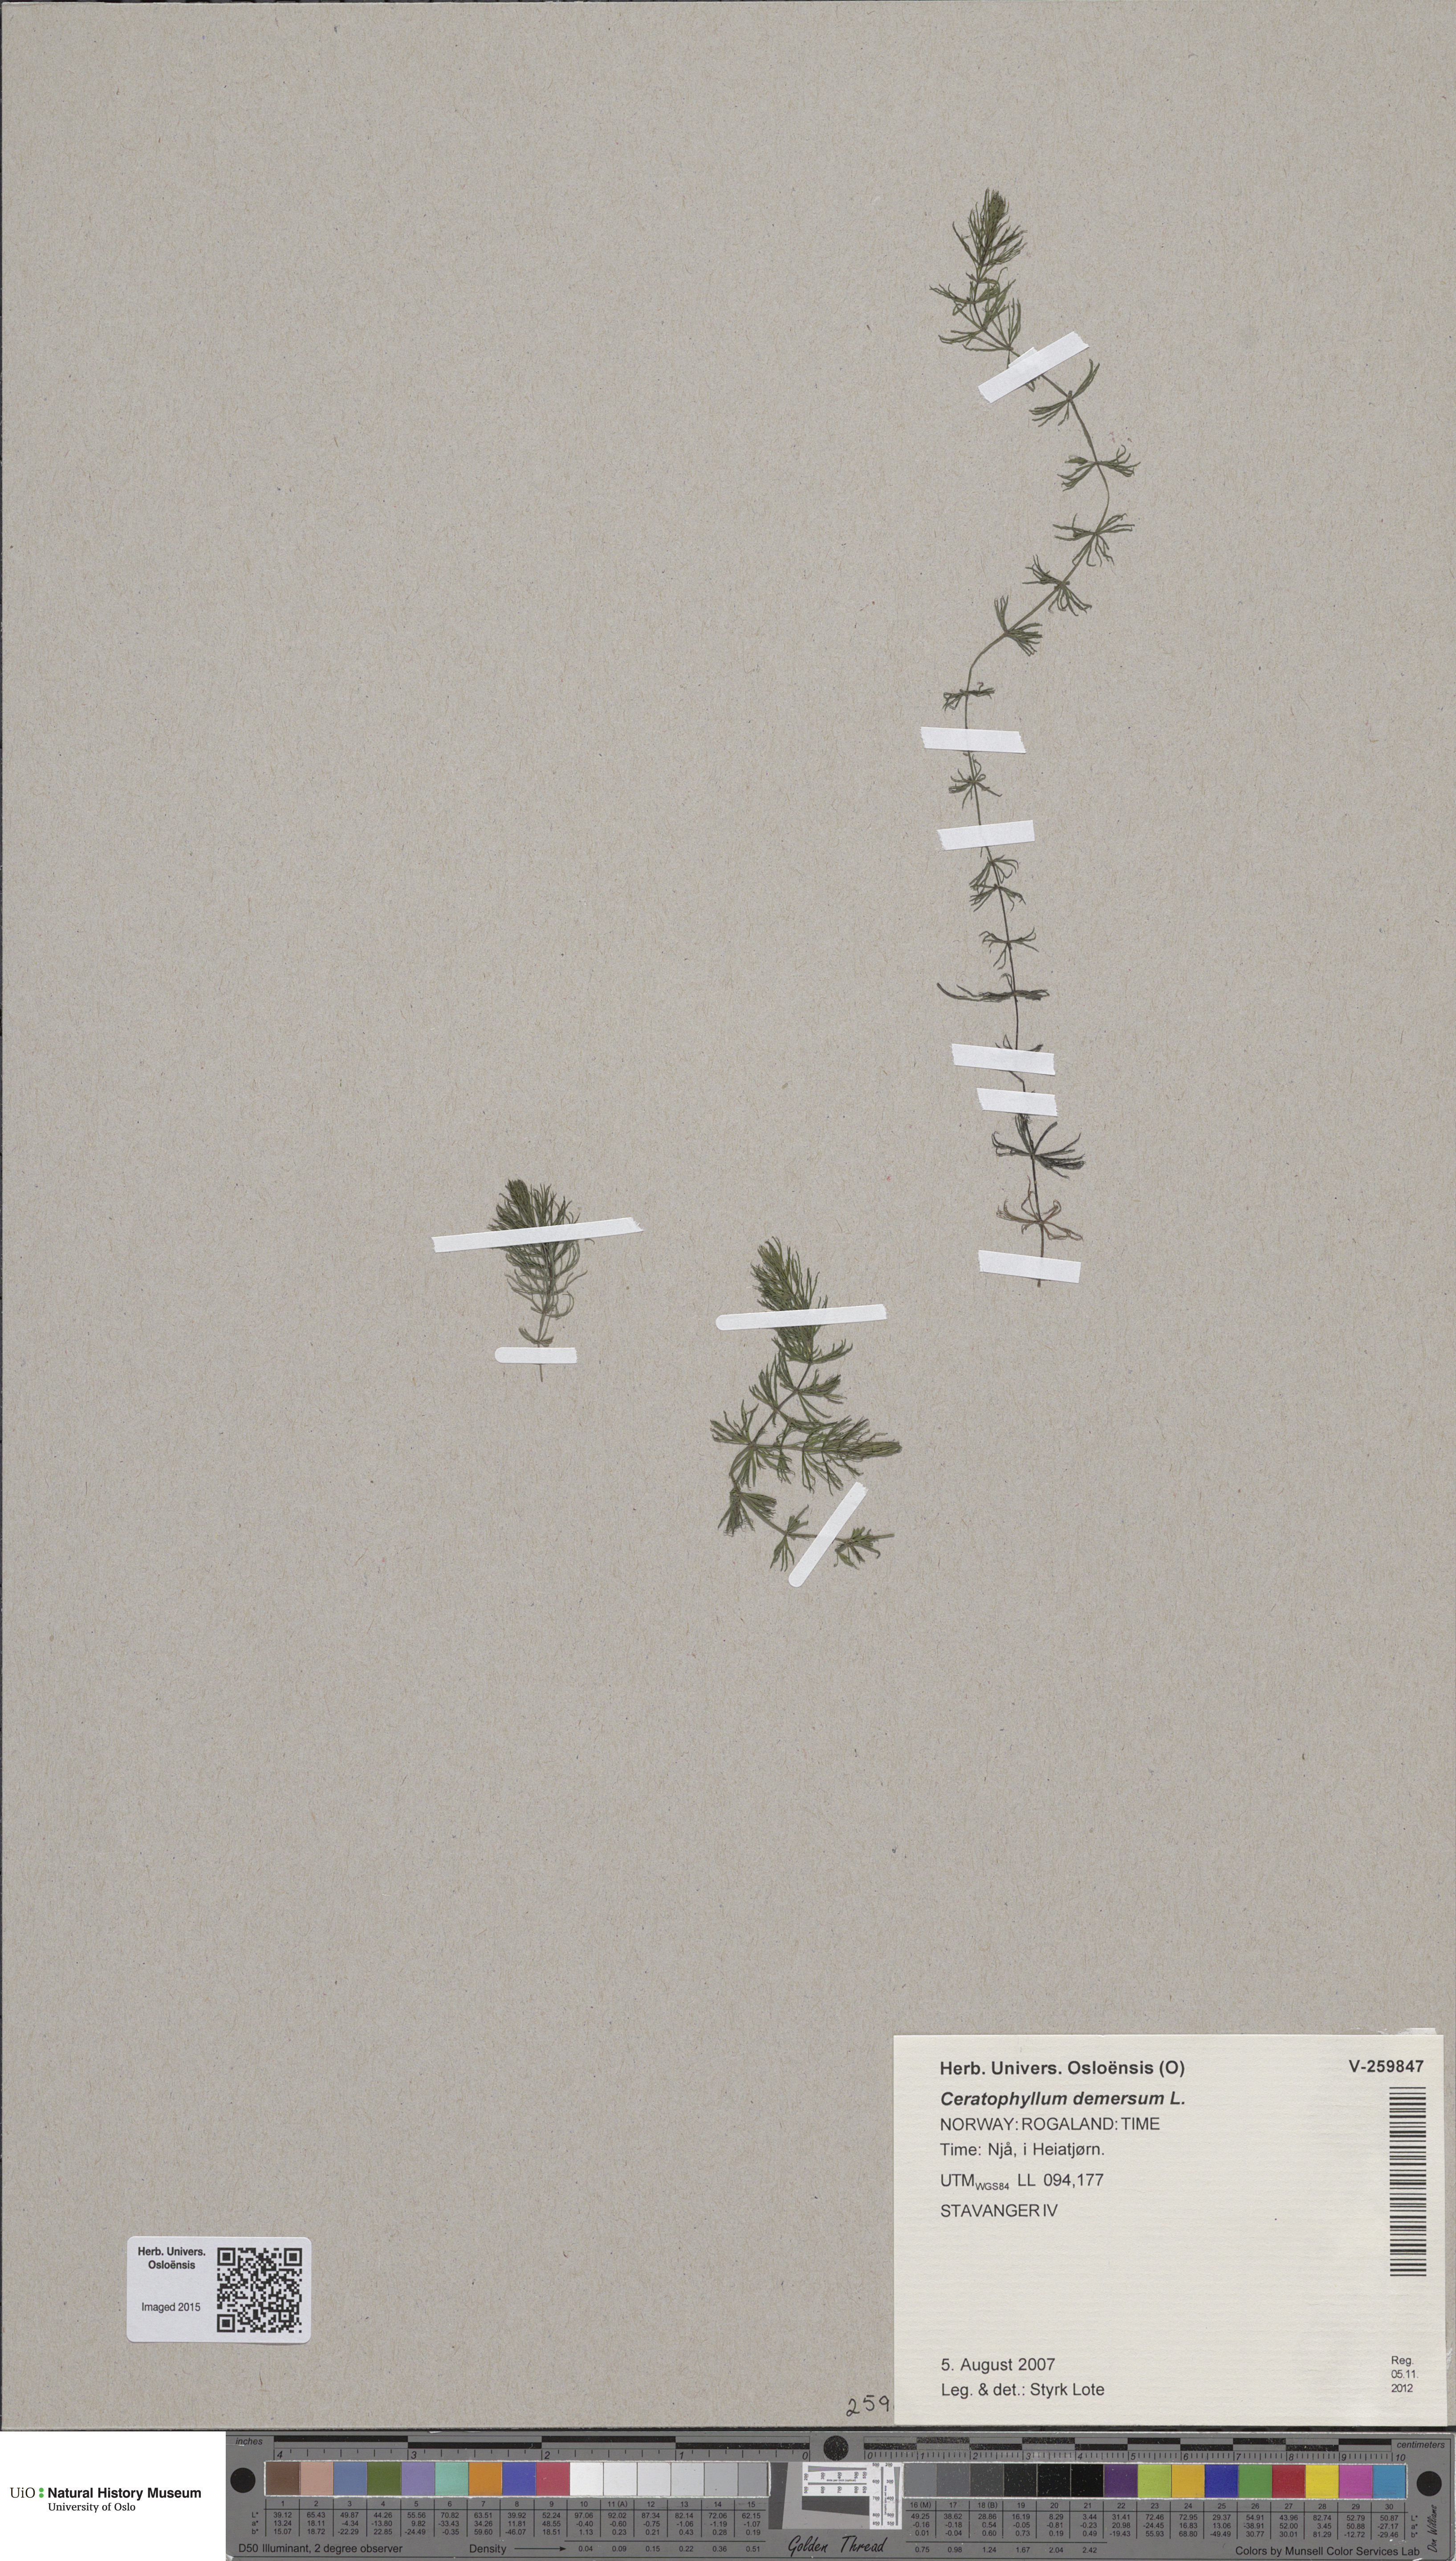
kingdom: Plantae
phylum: Tracheophyta
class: Magnoliopsida
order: Ceratophyllales
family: Ceratophyllaceae
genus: Ceratophyllum
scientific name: Ceratophyllum demersum
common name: Rigid hornwort
